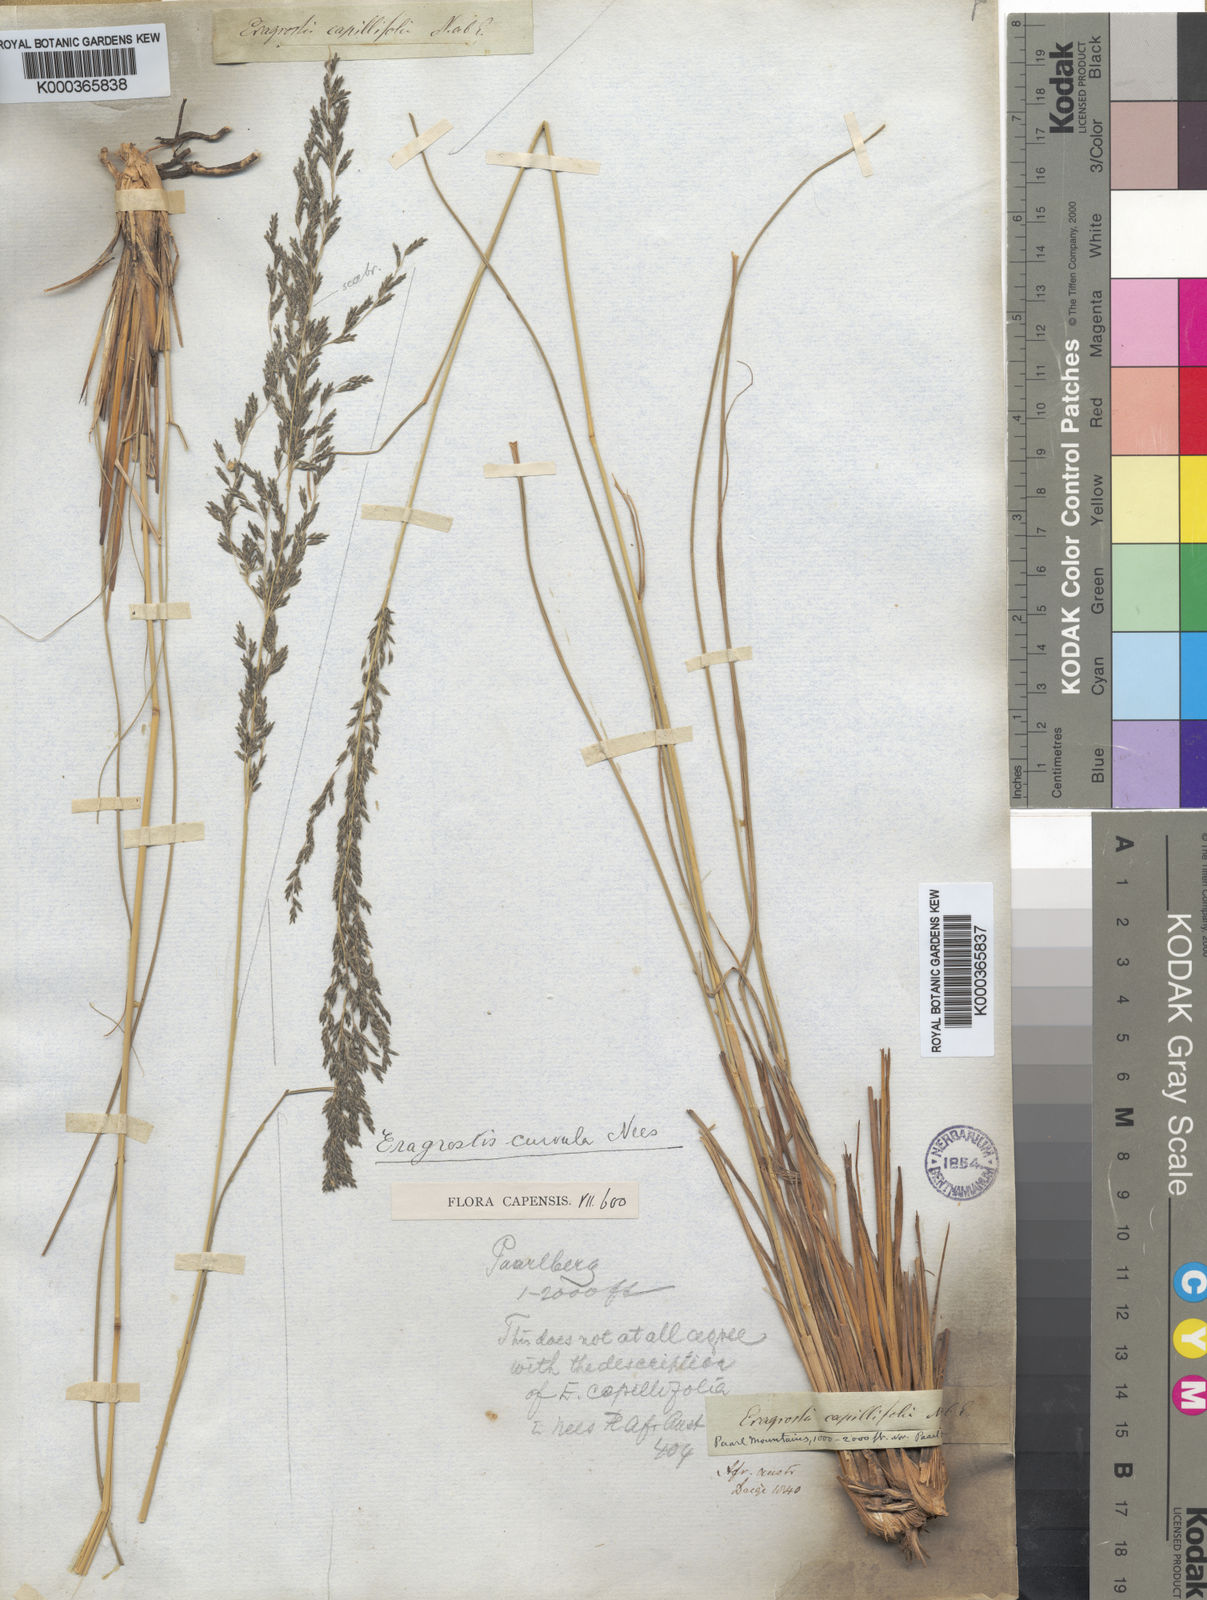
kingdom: Plantae
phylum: Tracheophyta
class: Liliopsida
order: Poales
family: Poaceae
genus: Eragrostis
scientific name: Eragrostis curvula
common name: African love-grass
